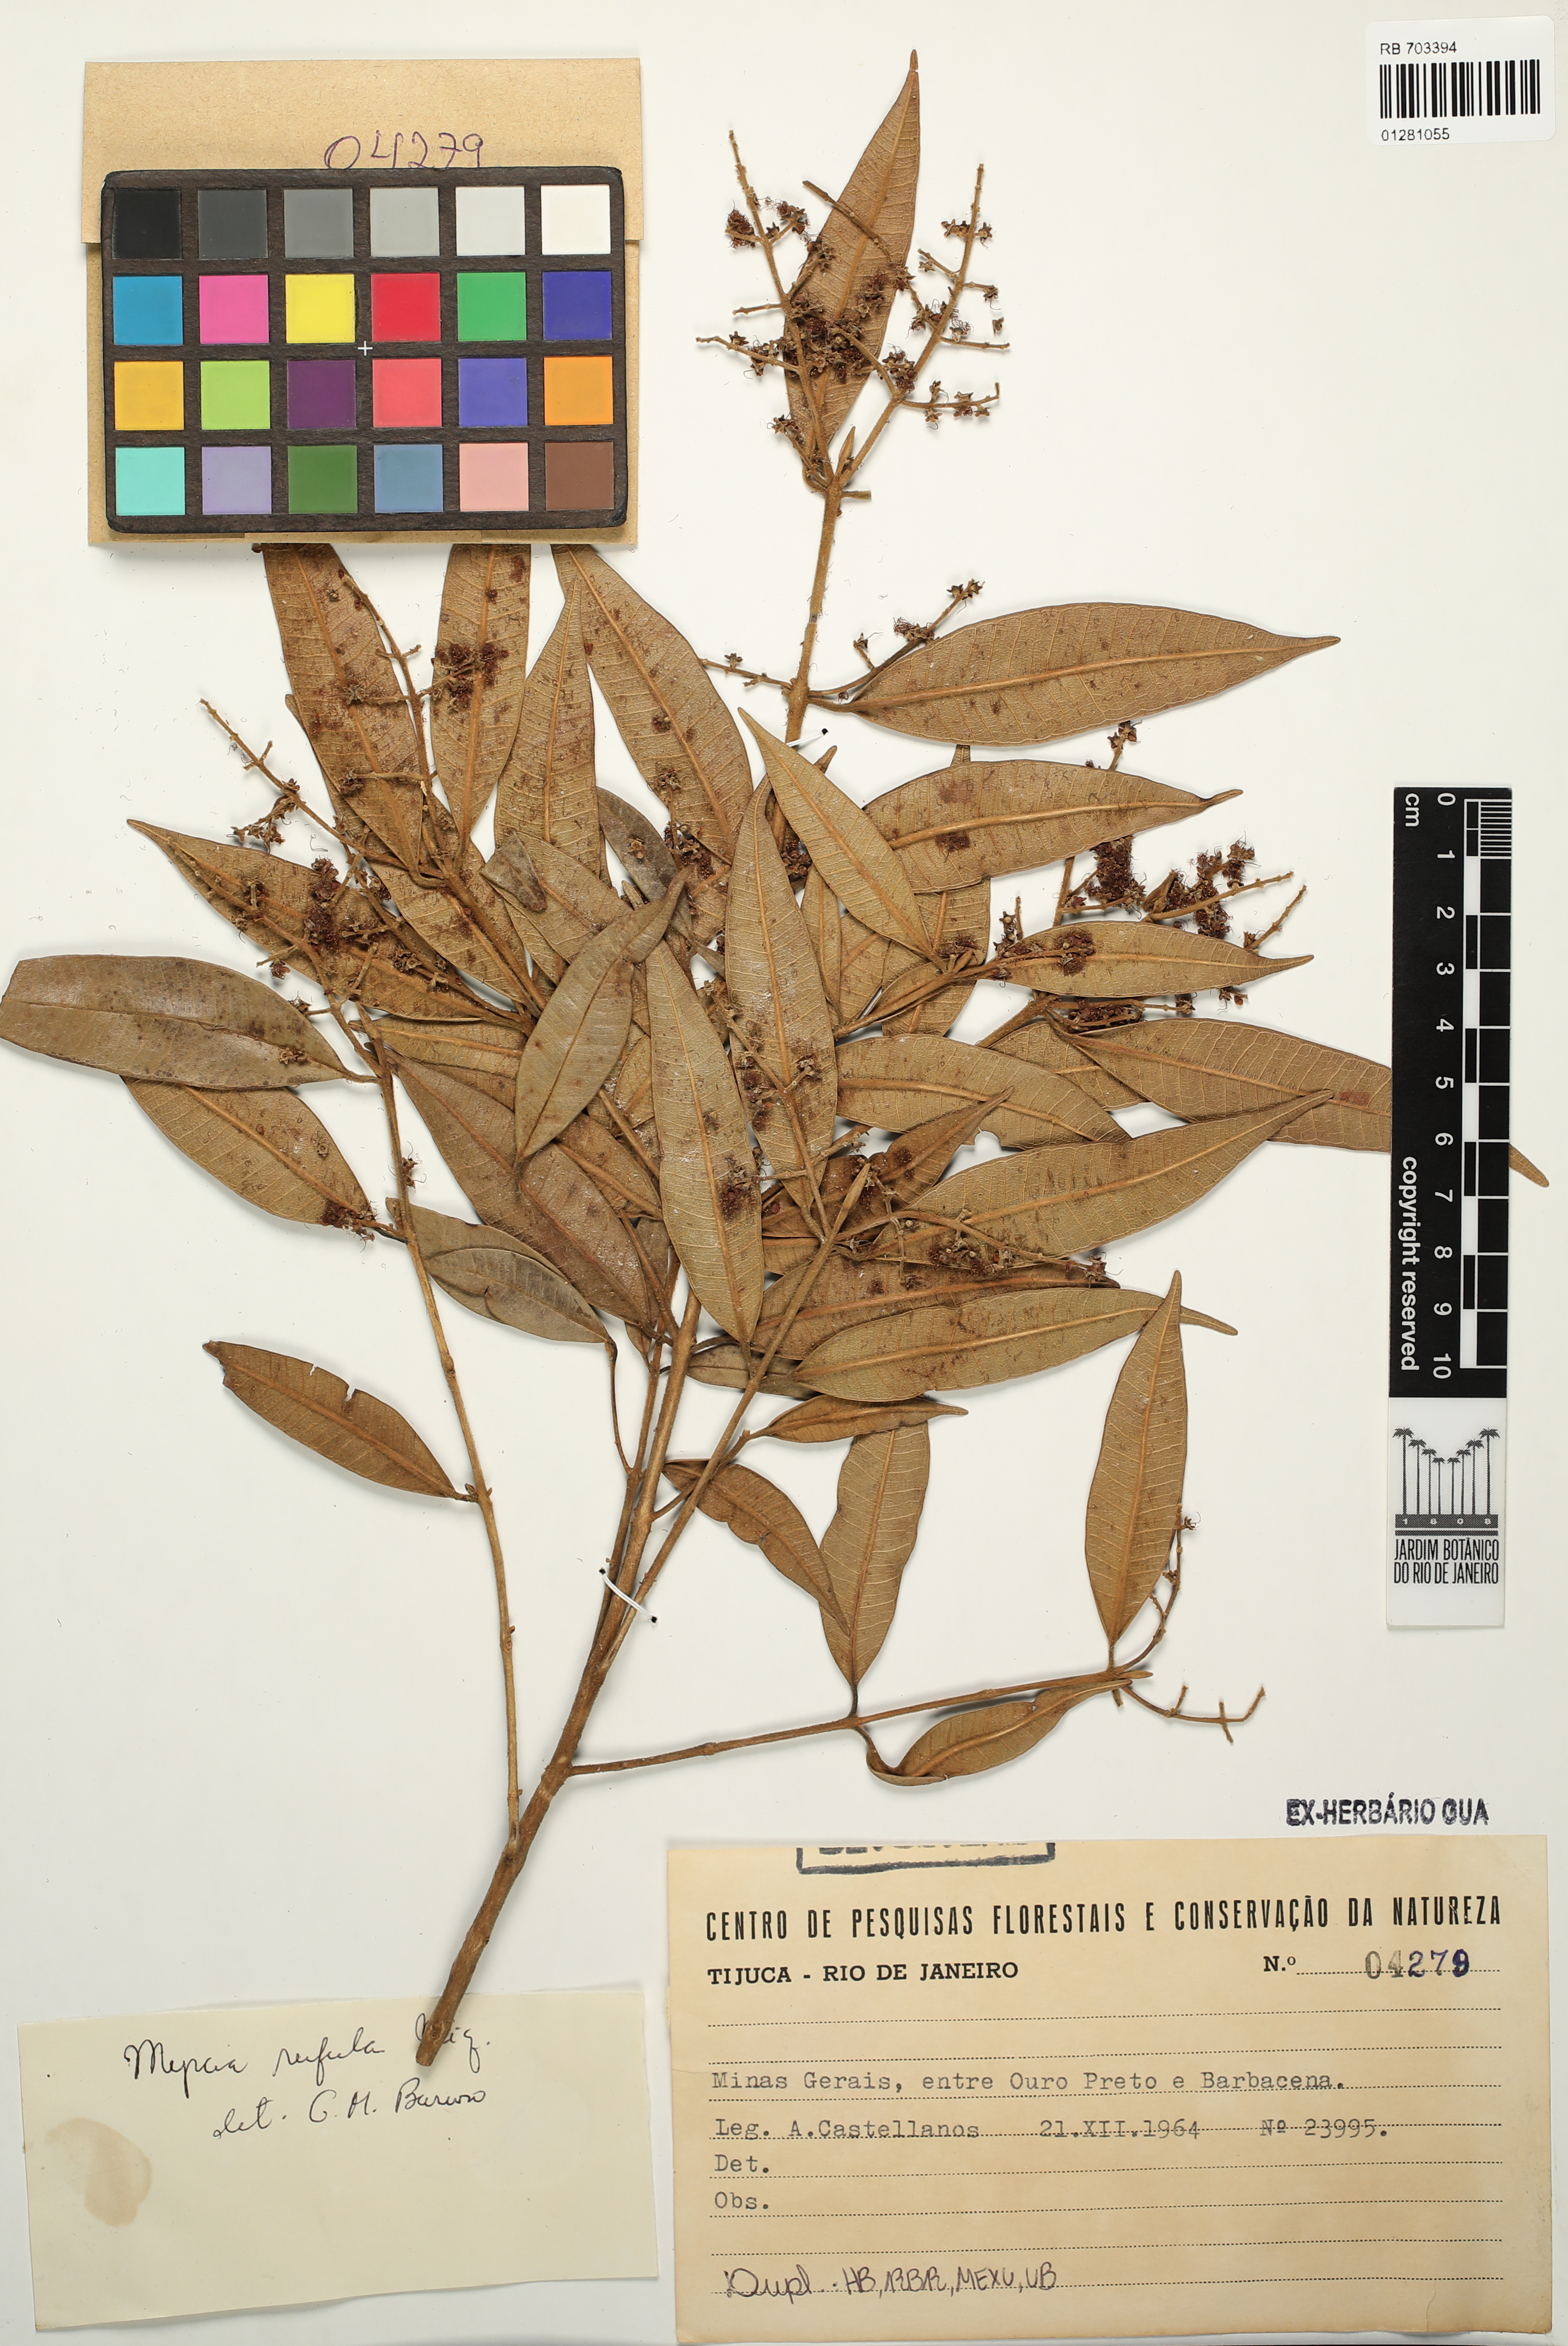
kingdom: Plantae
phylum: Tracheophyta
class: Magnoliopsida
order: Myrtales
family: Myrtaceae
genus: Myrcia
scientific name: Myrcia splendens
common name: Surinam cherry
